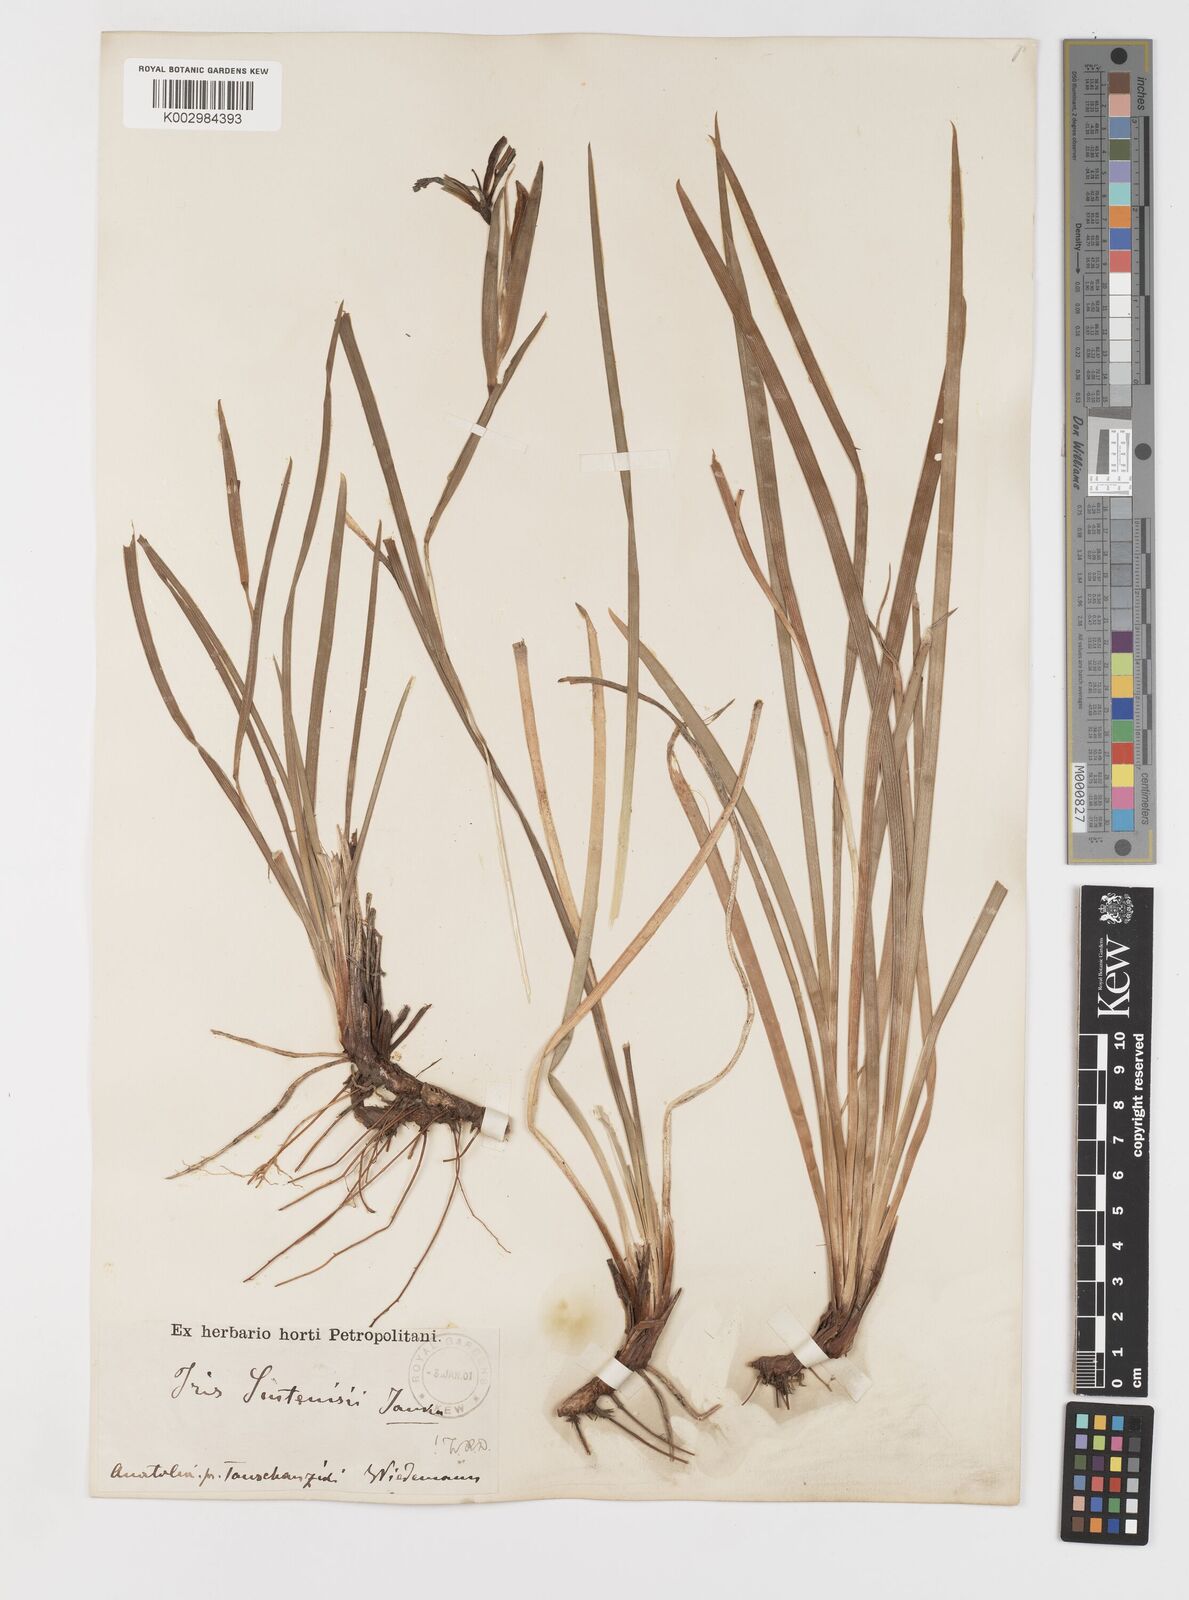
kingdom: Plantae
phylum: Tracheophyta
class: Liliopsida
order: Asparagales
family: Iridaceae
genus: Iris
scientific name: Iris sintenisii
